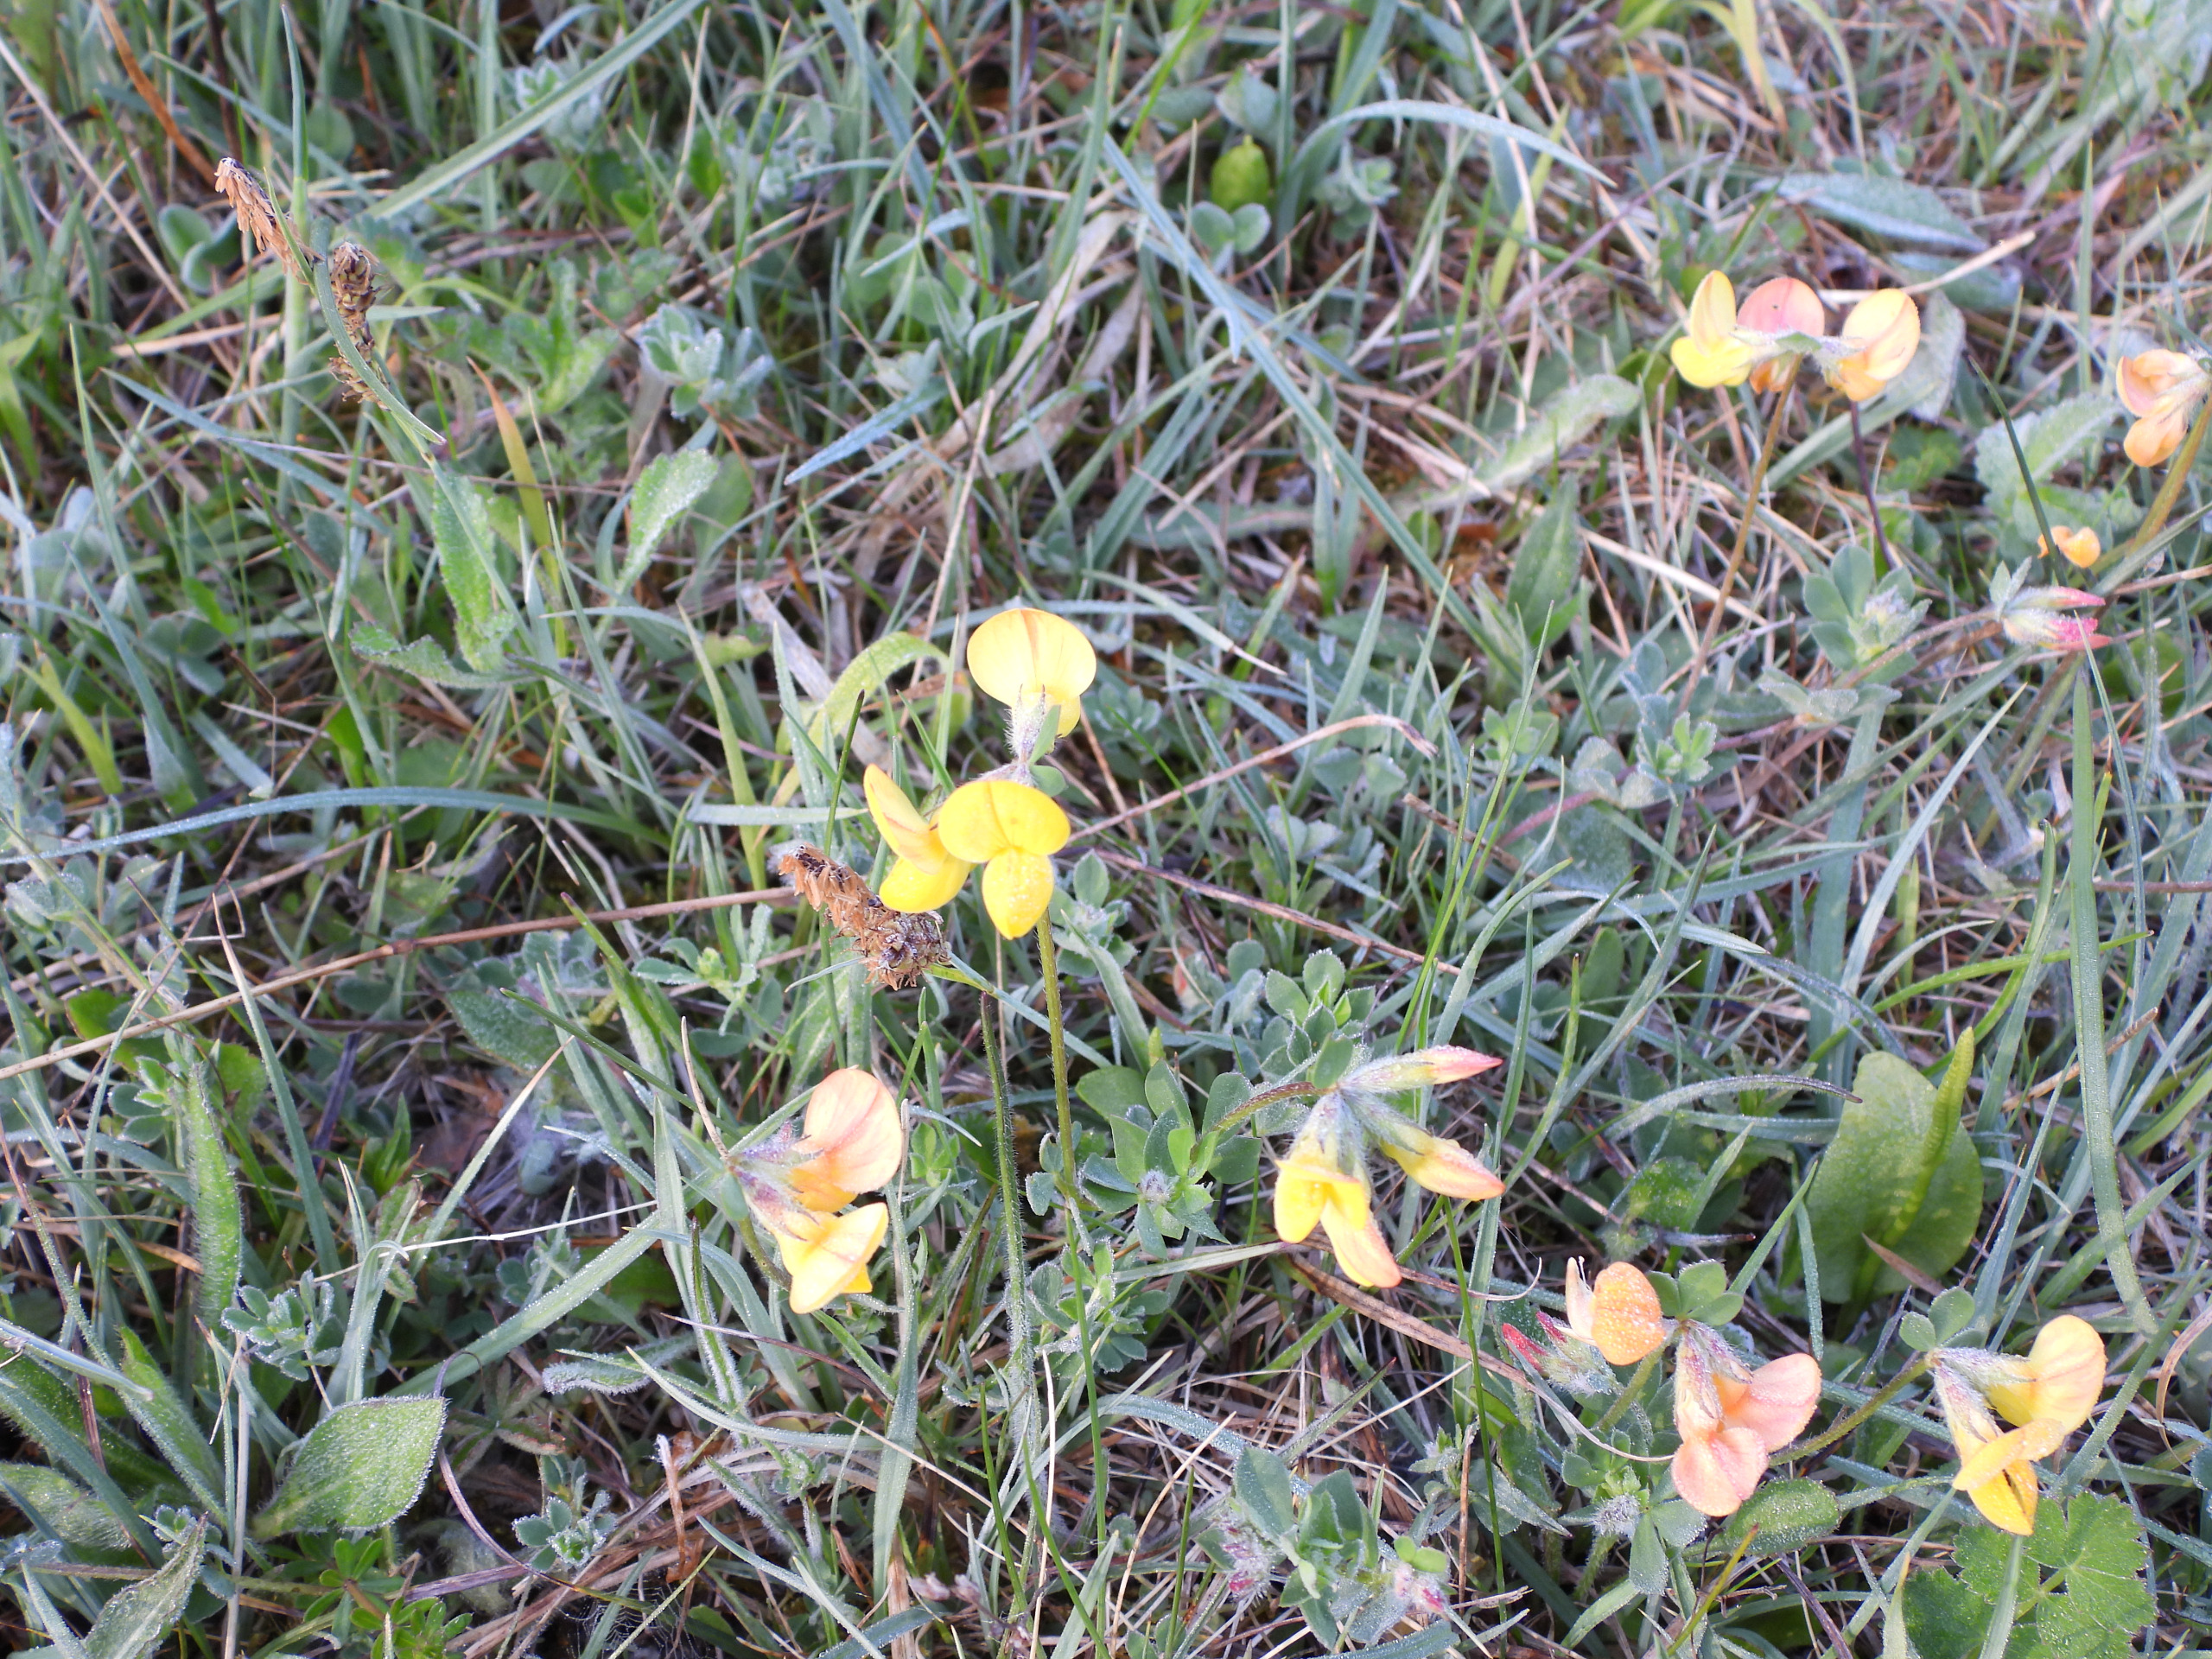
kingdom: Plantae
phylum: Tracheophyta
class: Magnoliopsida
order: Fabales
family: Fabaceae
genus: Lotus
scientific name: Lotus corniculatus
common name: Almindelig kællingetand
